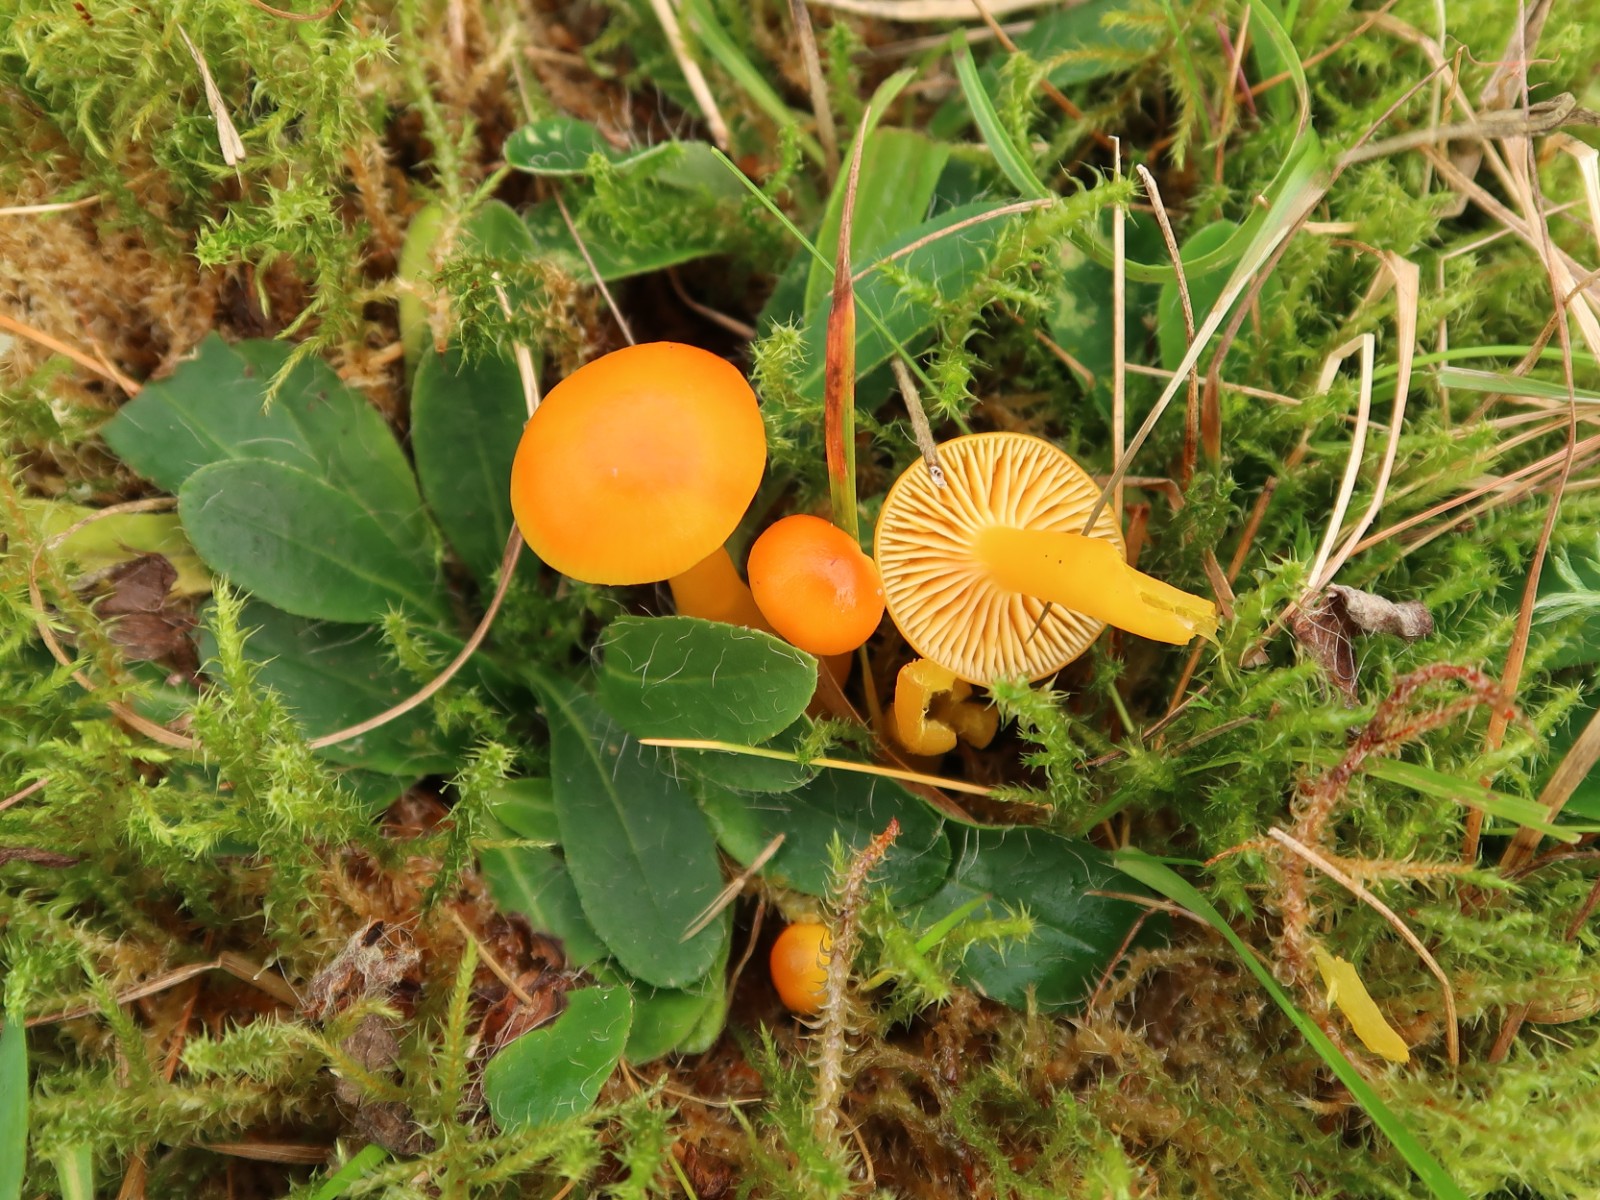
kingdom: Fungi
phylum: Basidiomycota
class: Agaricomycetes
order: Agaricales
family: Hygrophoraceae
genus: Hygrocybe
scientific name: Hygrocybe ceracea
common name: voksgul vokshat
